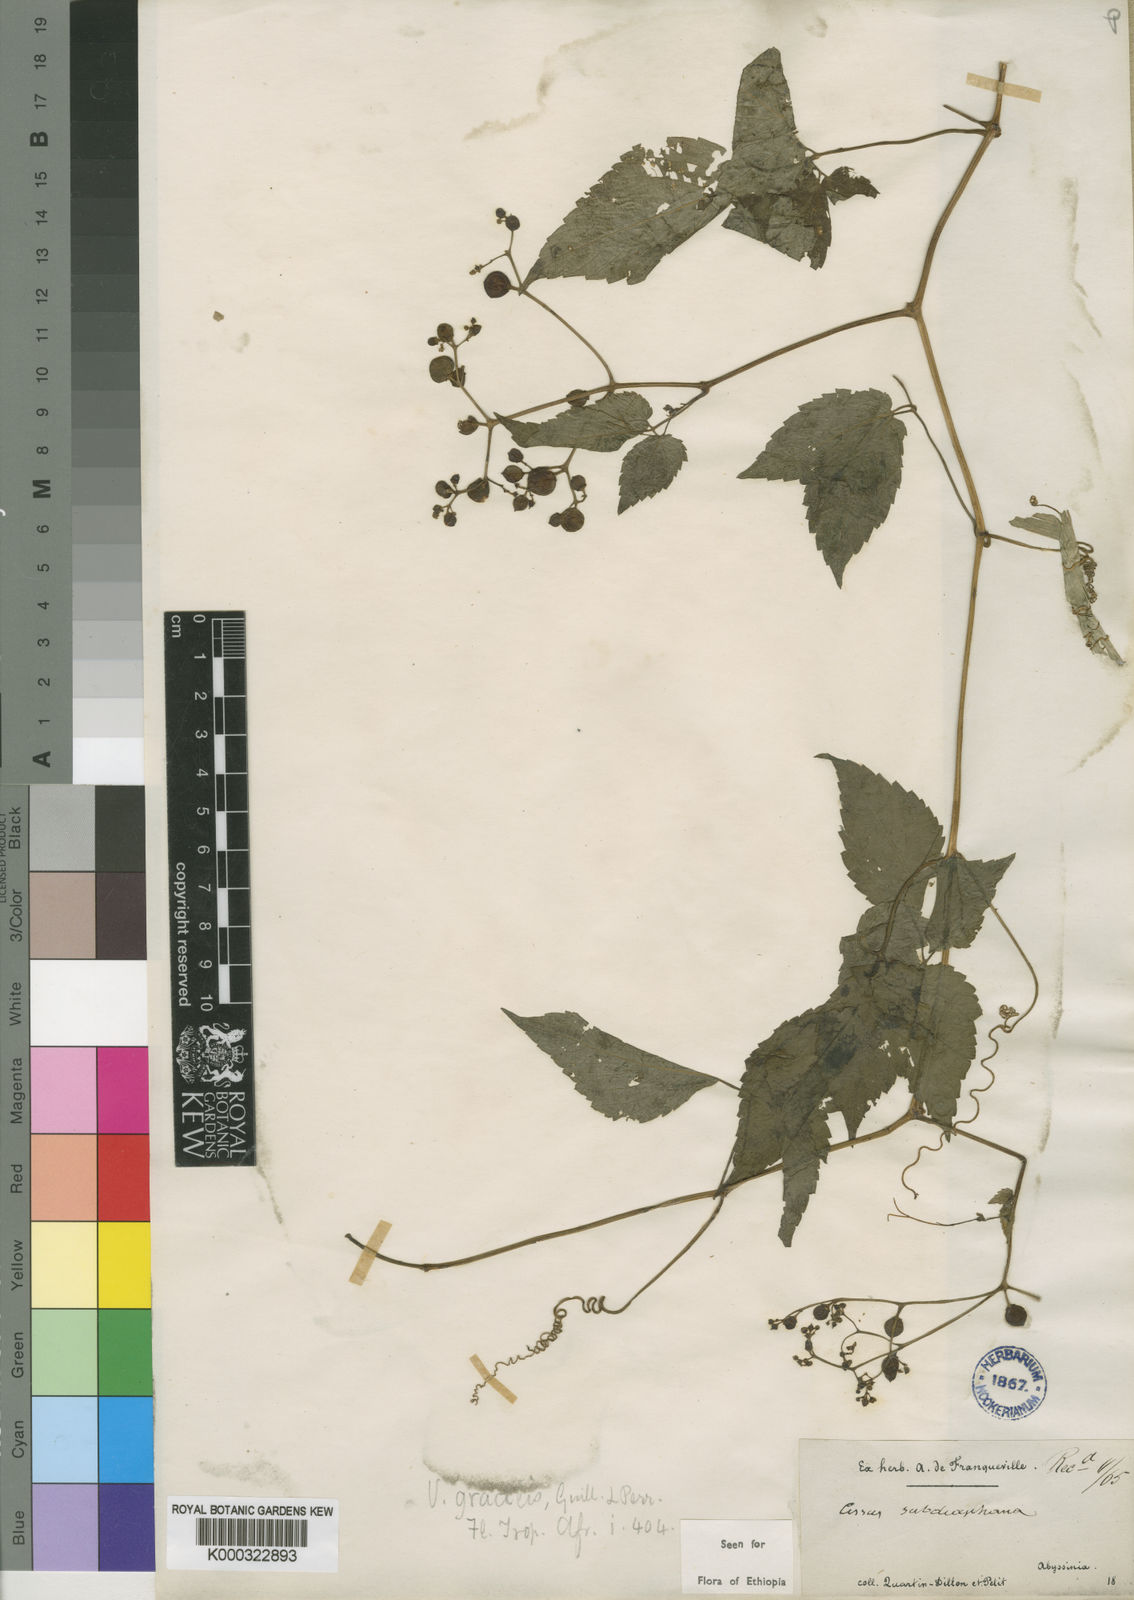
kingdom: Plantae
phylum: Tracheophyta
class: Magnoliopsida
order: Vitales
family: Vitaceae
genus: Afrocayratia
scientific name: Afrocayratia gracilis
